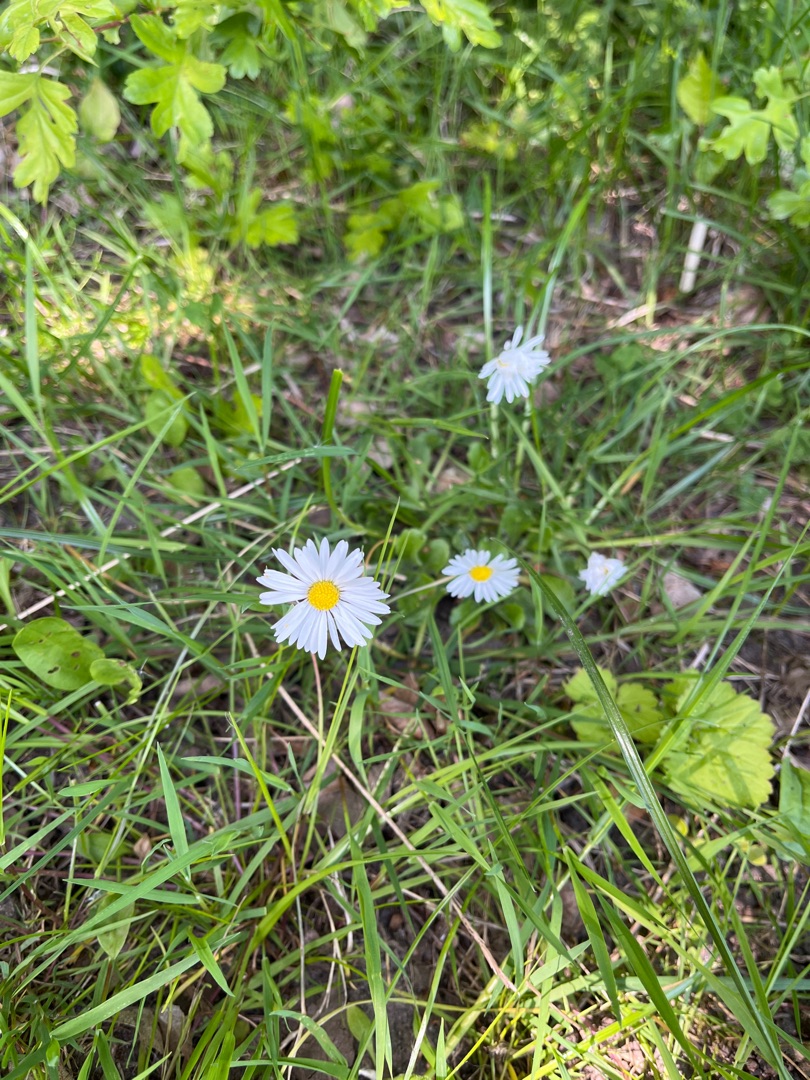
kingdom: Plantae
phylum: Tracheophyta
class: Magnoliopsida
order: Asterales
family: Asteraceae
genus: Bellis
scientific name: Bellis perennis
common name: Tusindfryd
